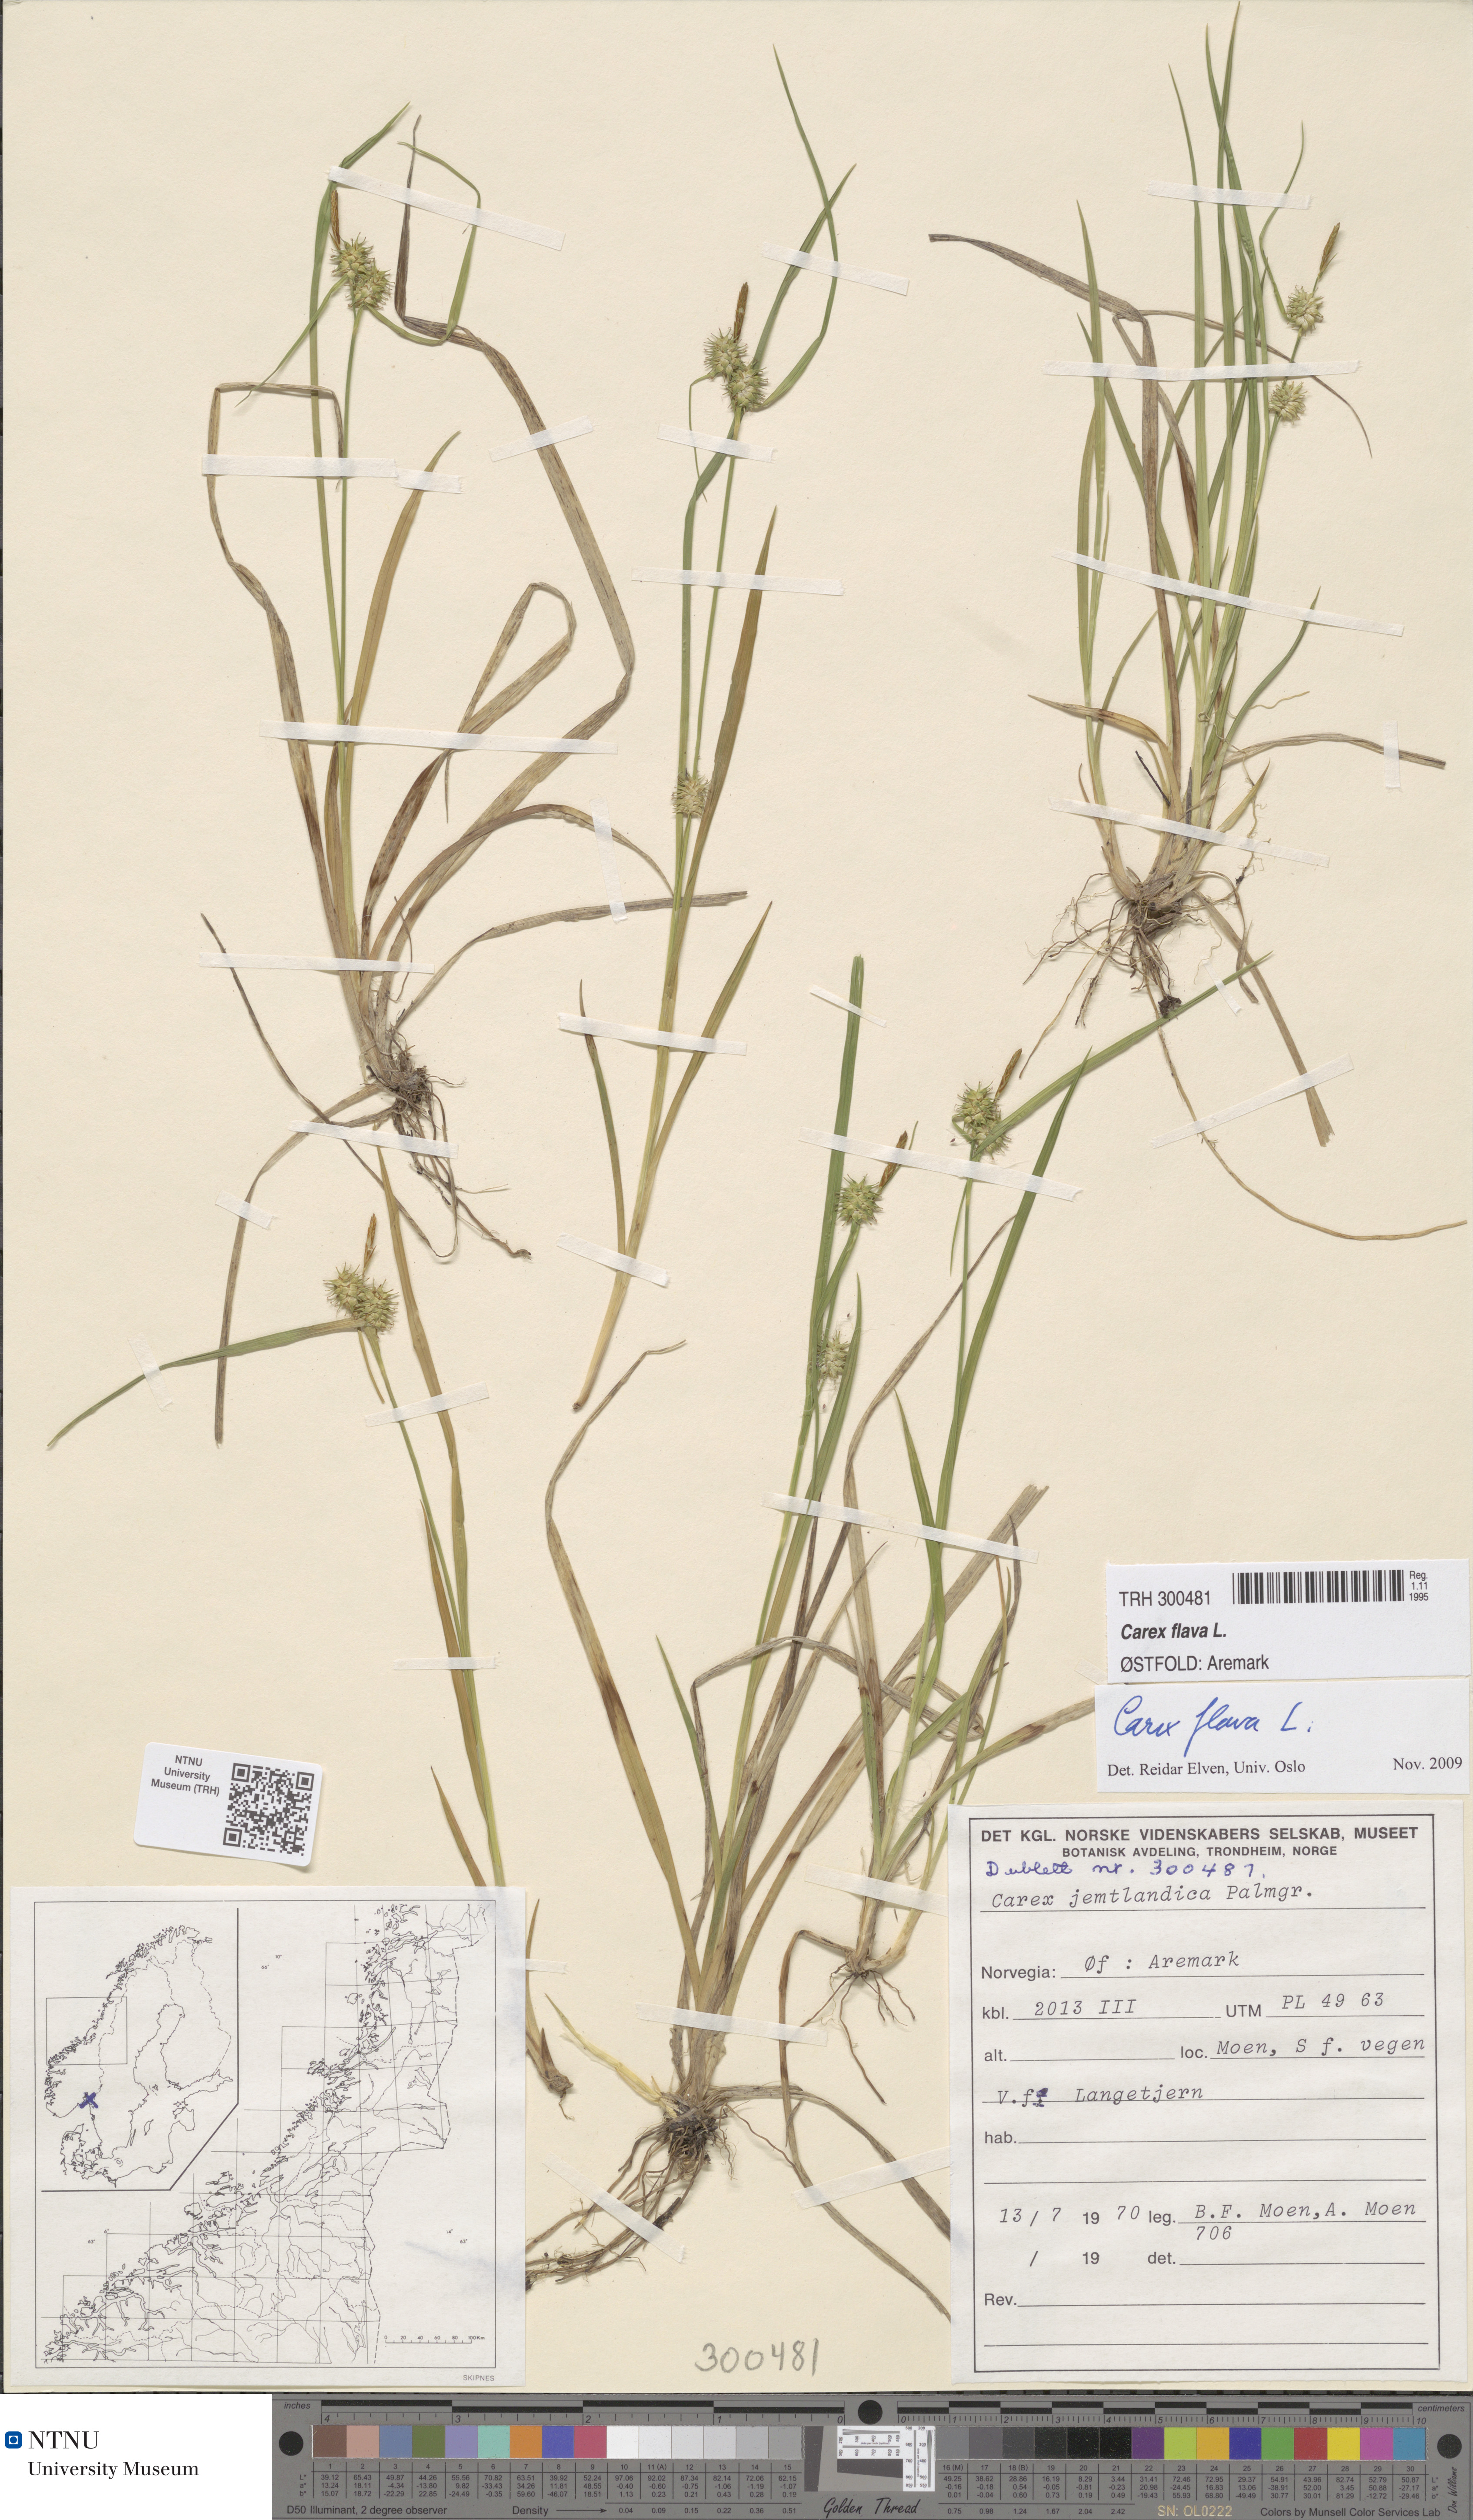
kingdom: Plantae
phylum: Tracheophyta
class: Liliopsida
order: Poales
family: Cyperaceae
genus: Carex
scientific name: Carex flava
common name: Large yellow-sedge
